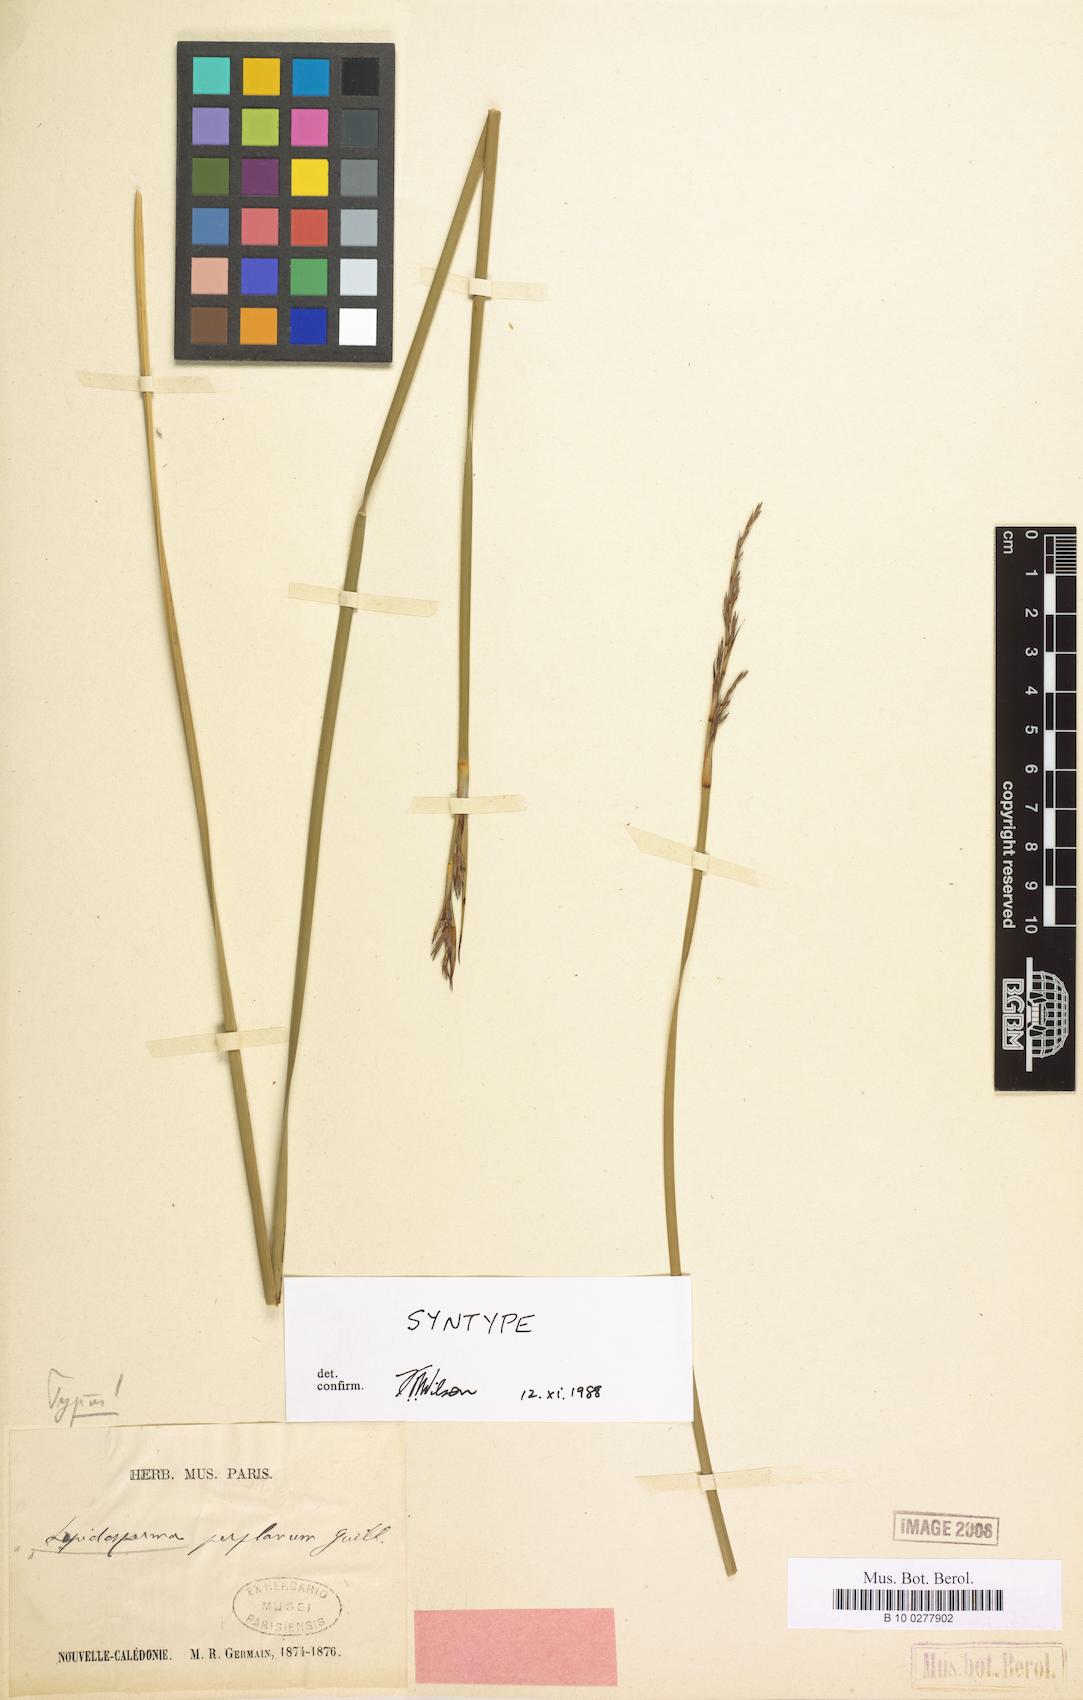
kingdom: Plantae
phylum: Tracheophyta
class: Liliopsida
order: Poales
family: Cyperaceae
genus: Lepidosperma
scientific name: Lepidosperma perplanum
